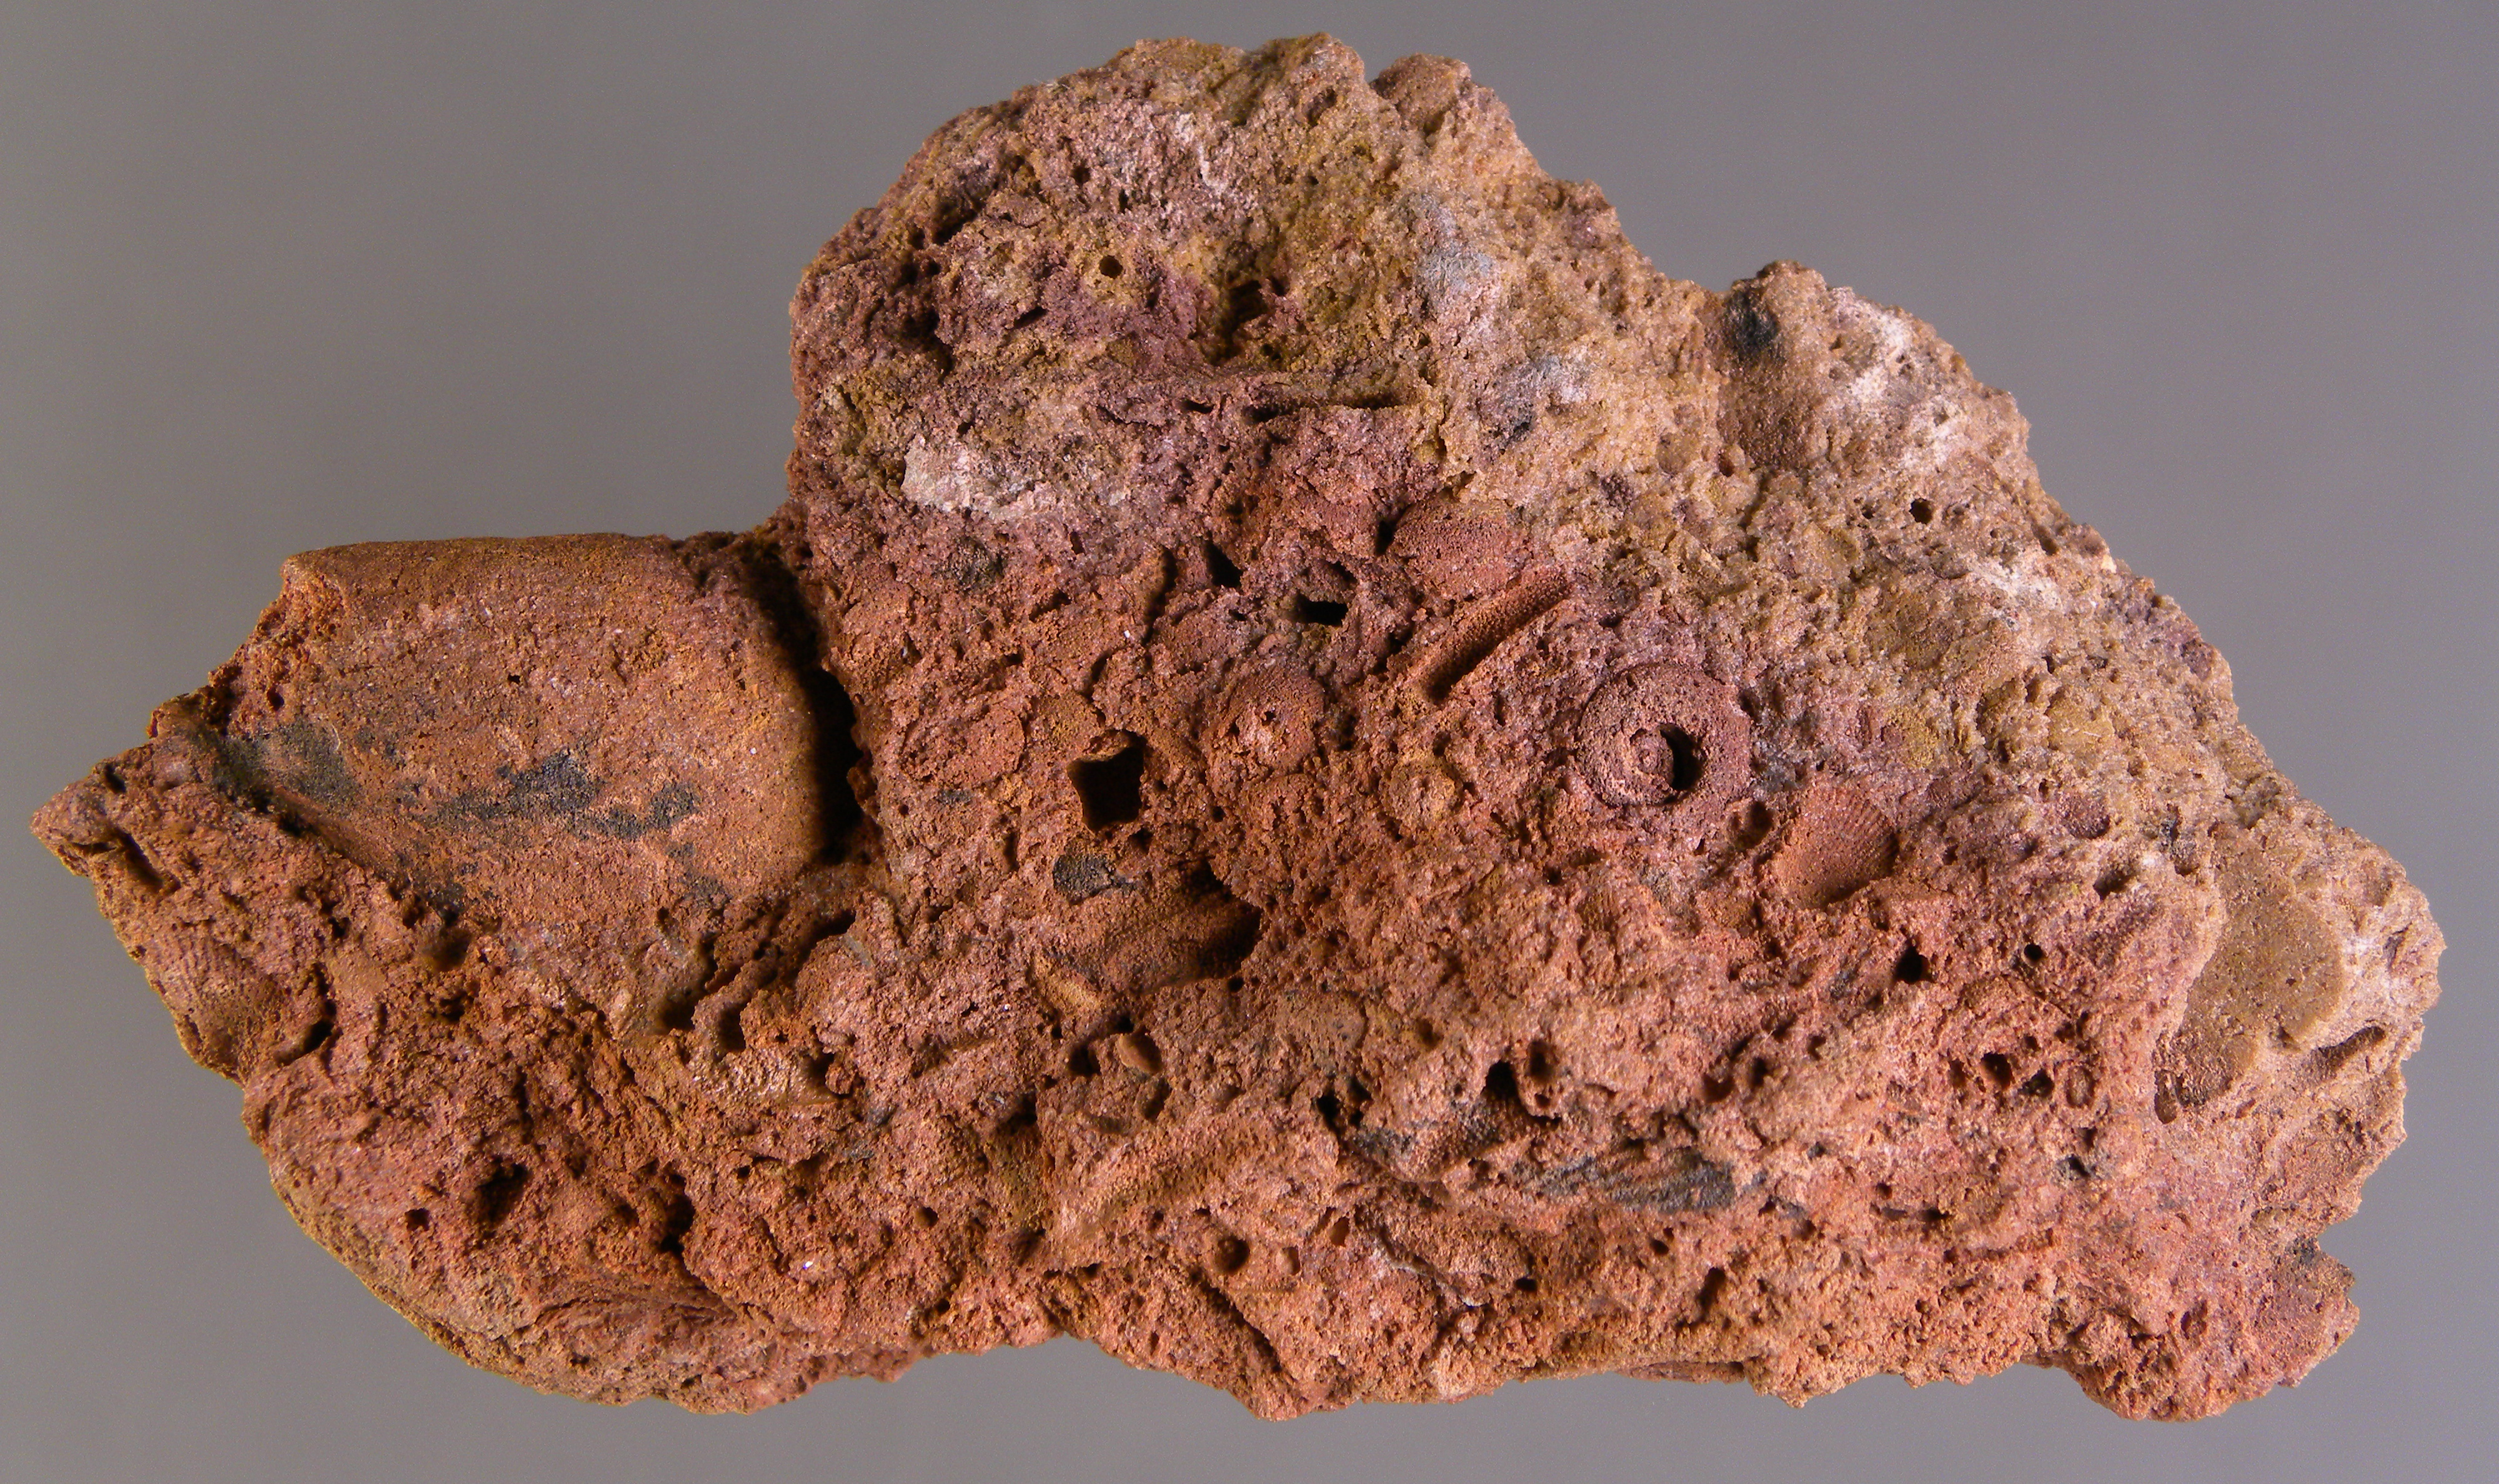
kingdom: Animalia
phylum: Mollusca
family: Tropidodiscidae
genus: Tropidodiscus
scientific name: Tropidodiscus
